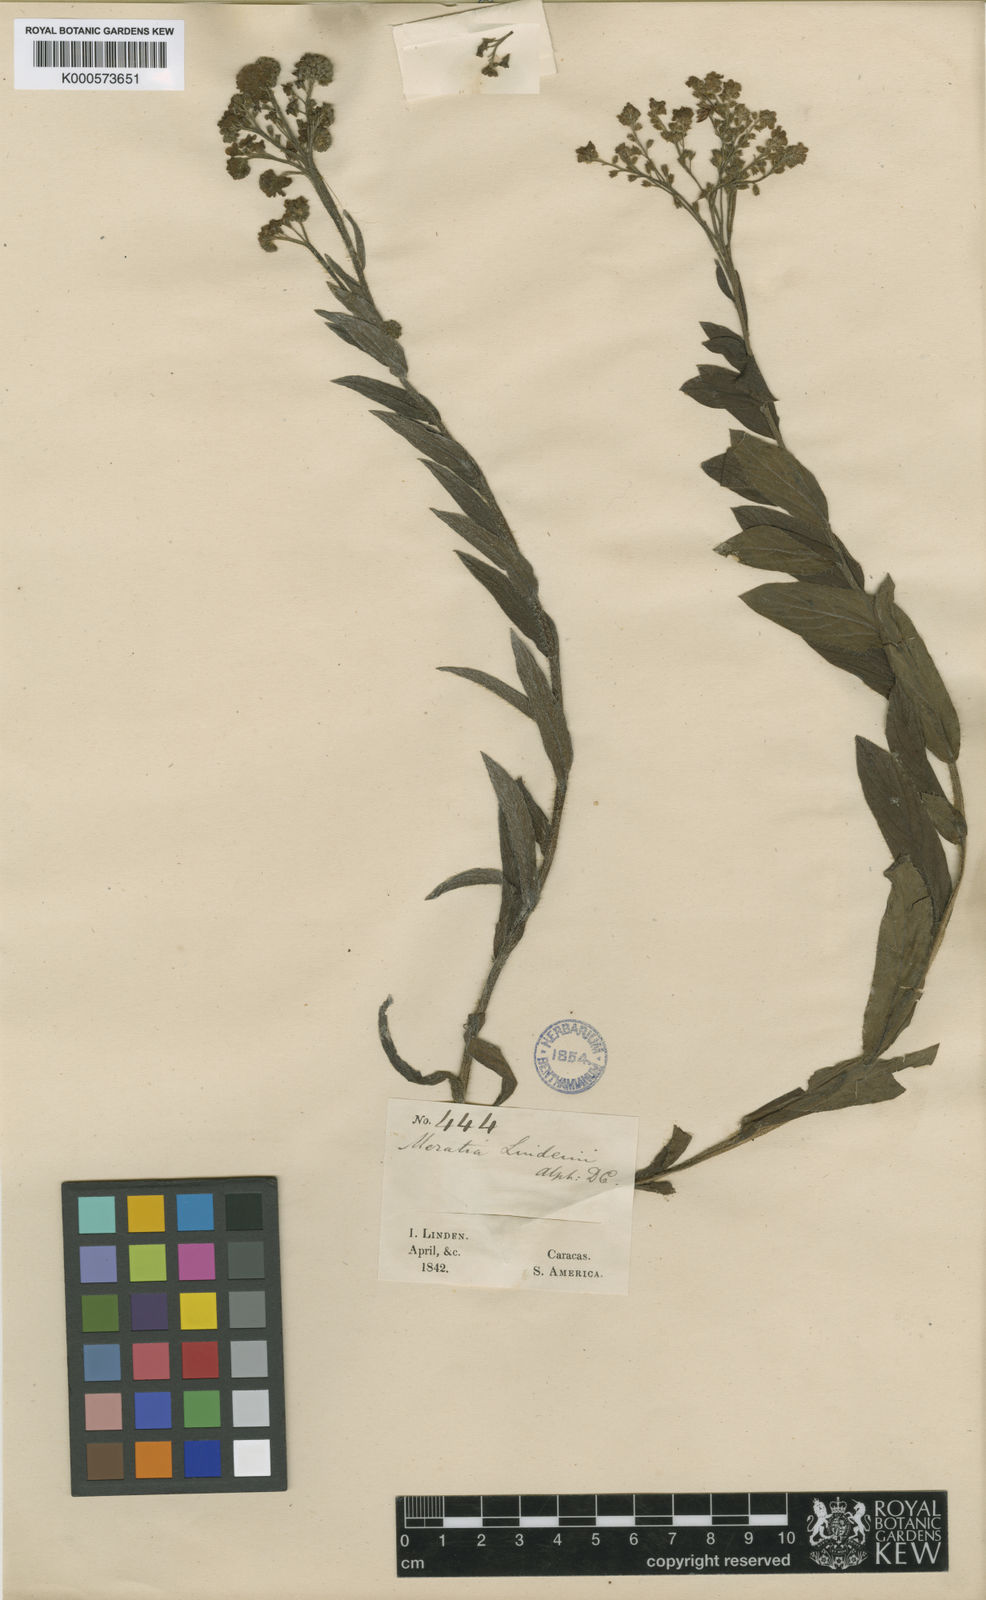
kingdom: Plantae
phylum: Tracheophyta
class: Magnoliopsida
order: Boraginales
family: Boraginaceae
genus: Moritzia
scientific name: Moritzia
